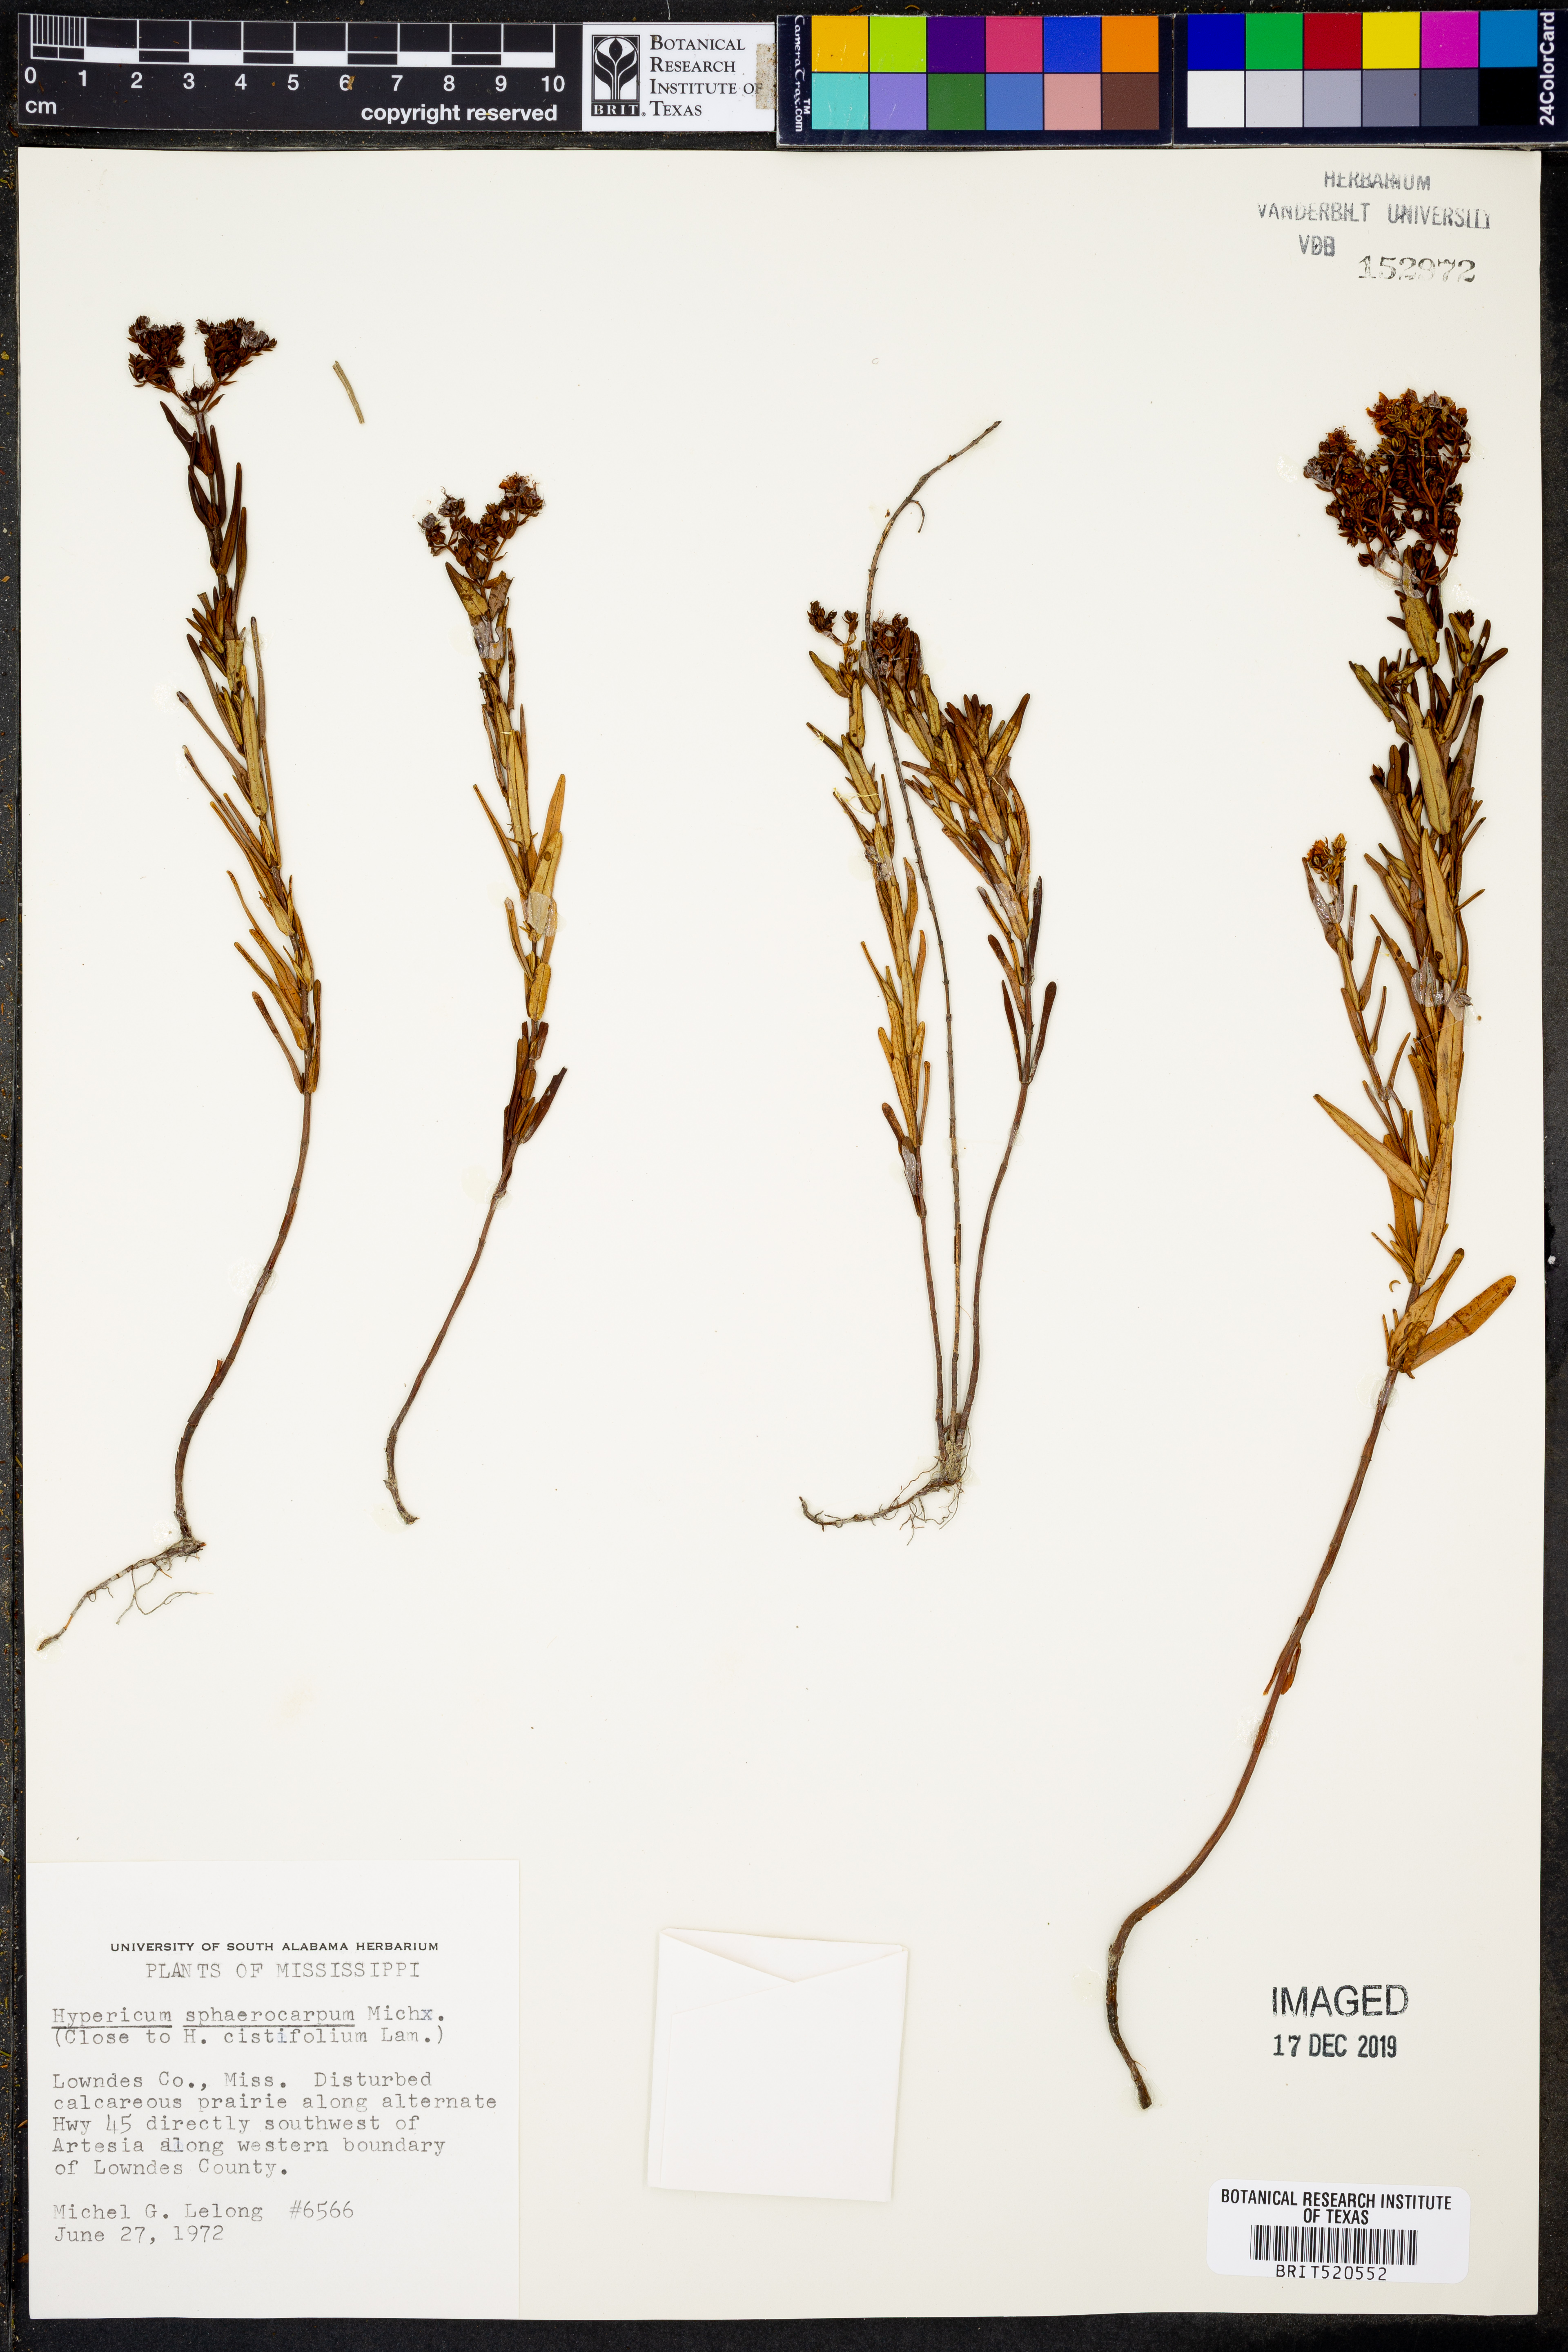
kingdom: Plantae
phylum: Tracheophyta
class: Magnoliopsida
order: Malpighiales
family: Hypericaceae
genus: Hypericum
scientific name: Hypericum sphaerocarpum
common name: Round-fruited st. john's-wort
